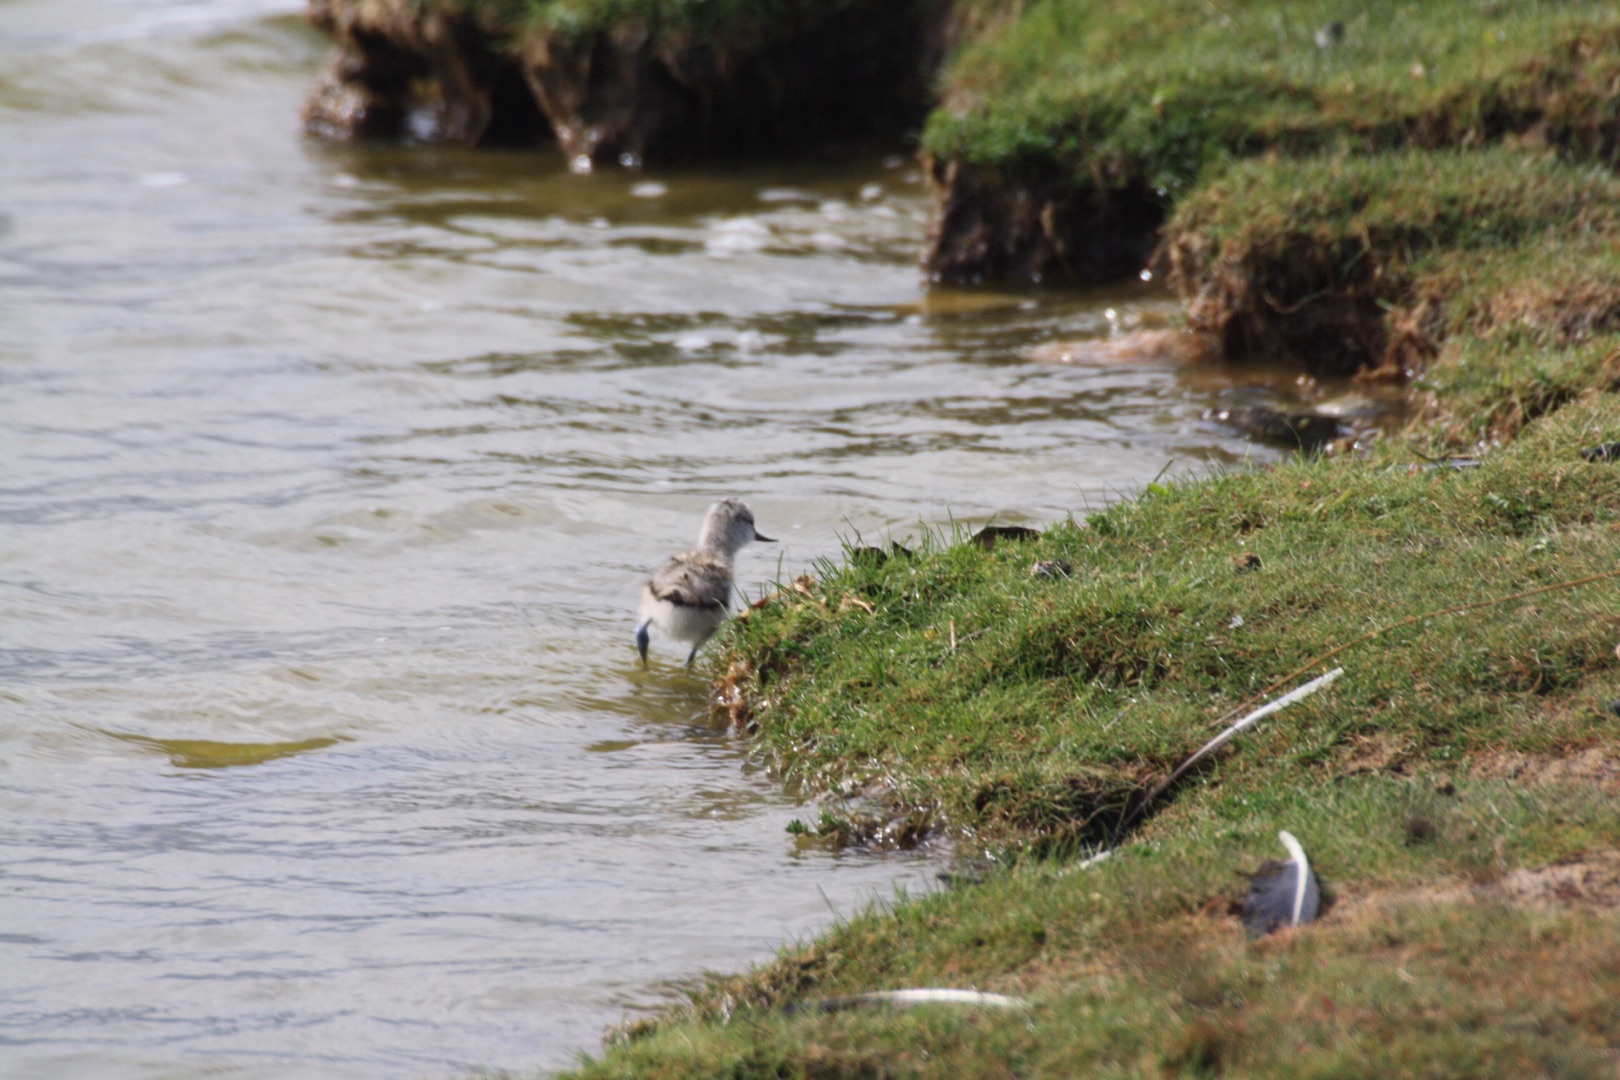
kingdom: Animalia
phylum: Chordata
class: Aves
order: Charadriiformes
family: Recurvirostridae
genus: Recurvirostra
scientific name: Recurvirostra avosetta
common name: Klyde
